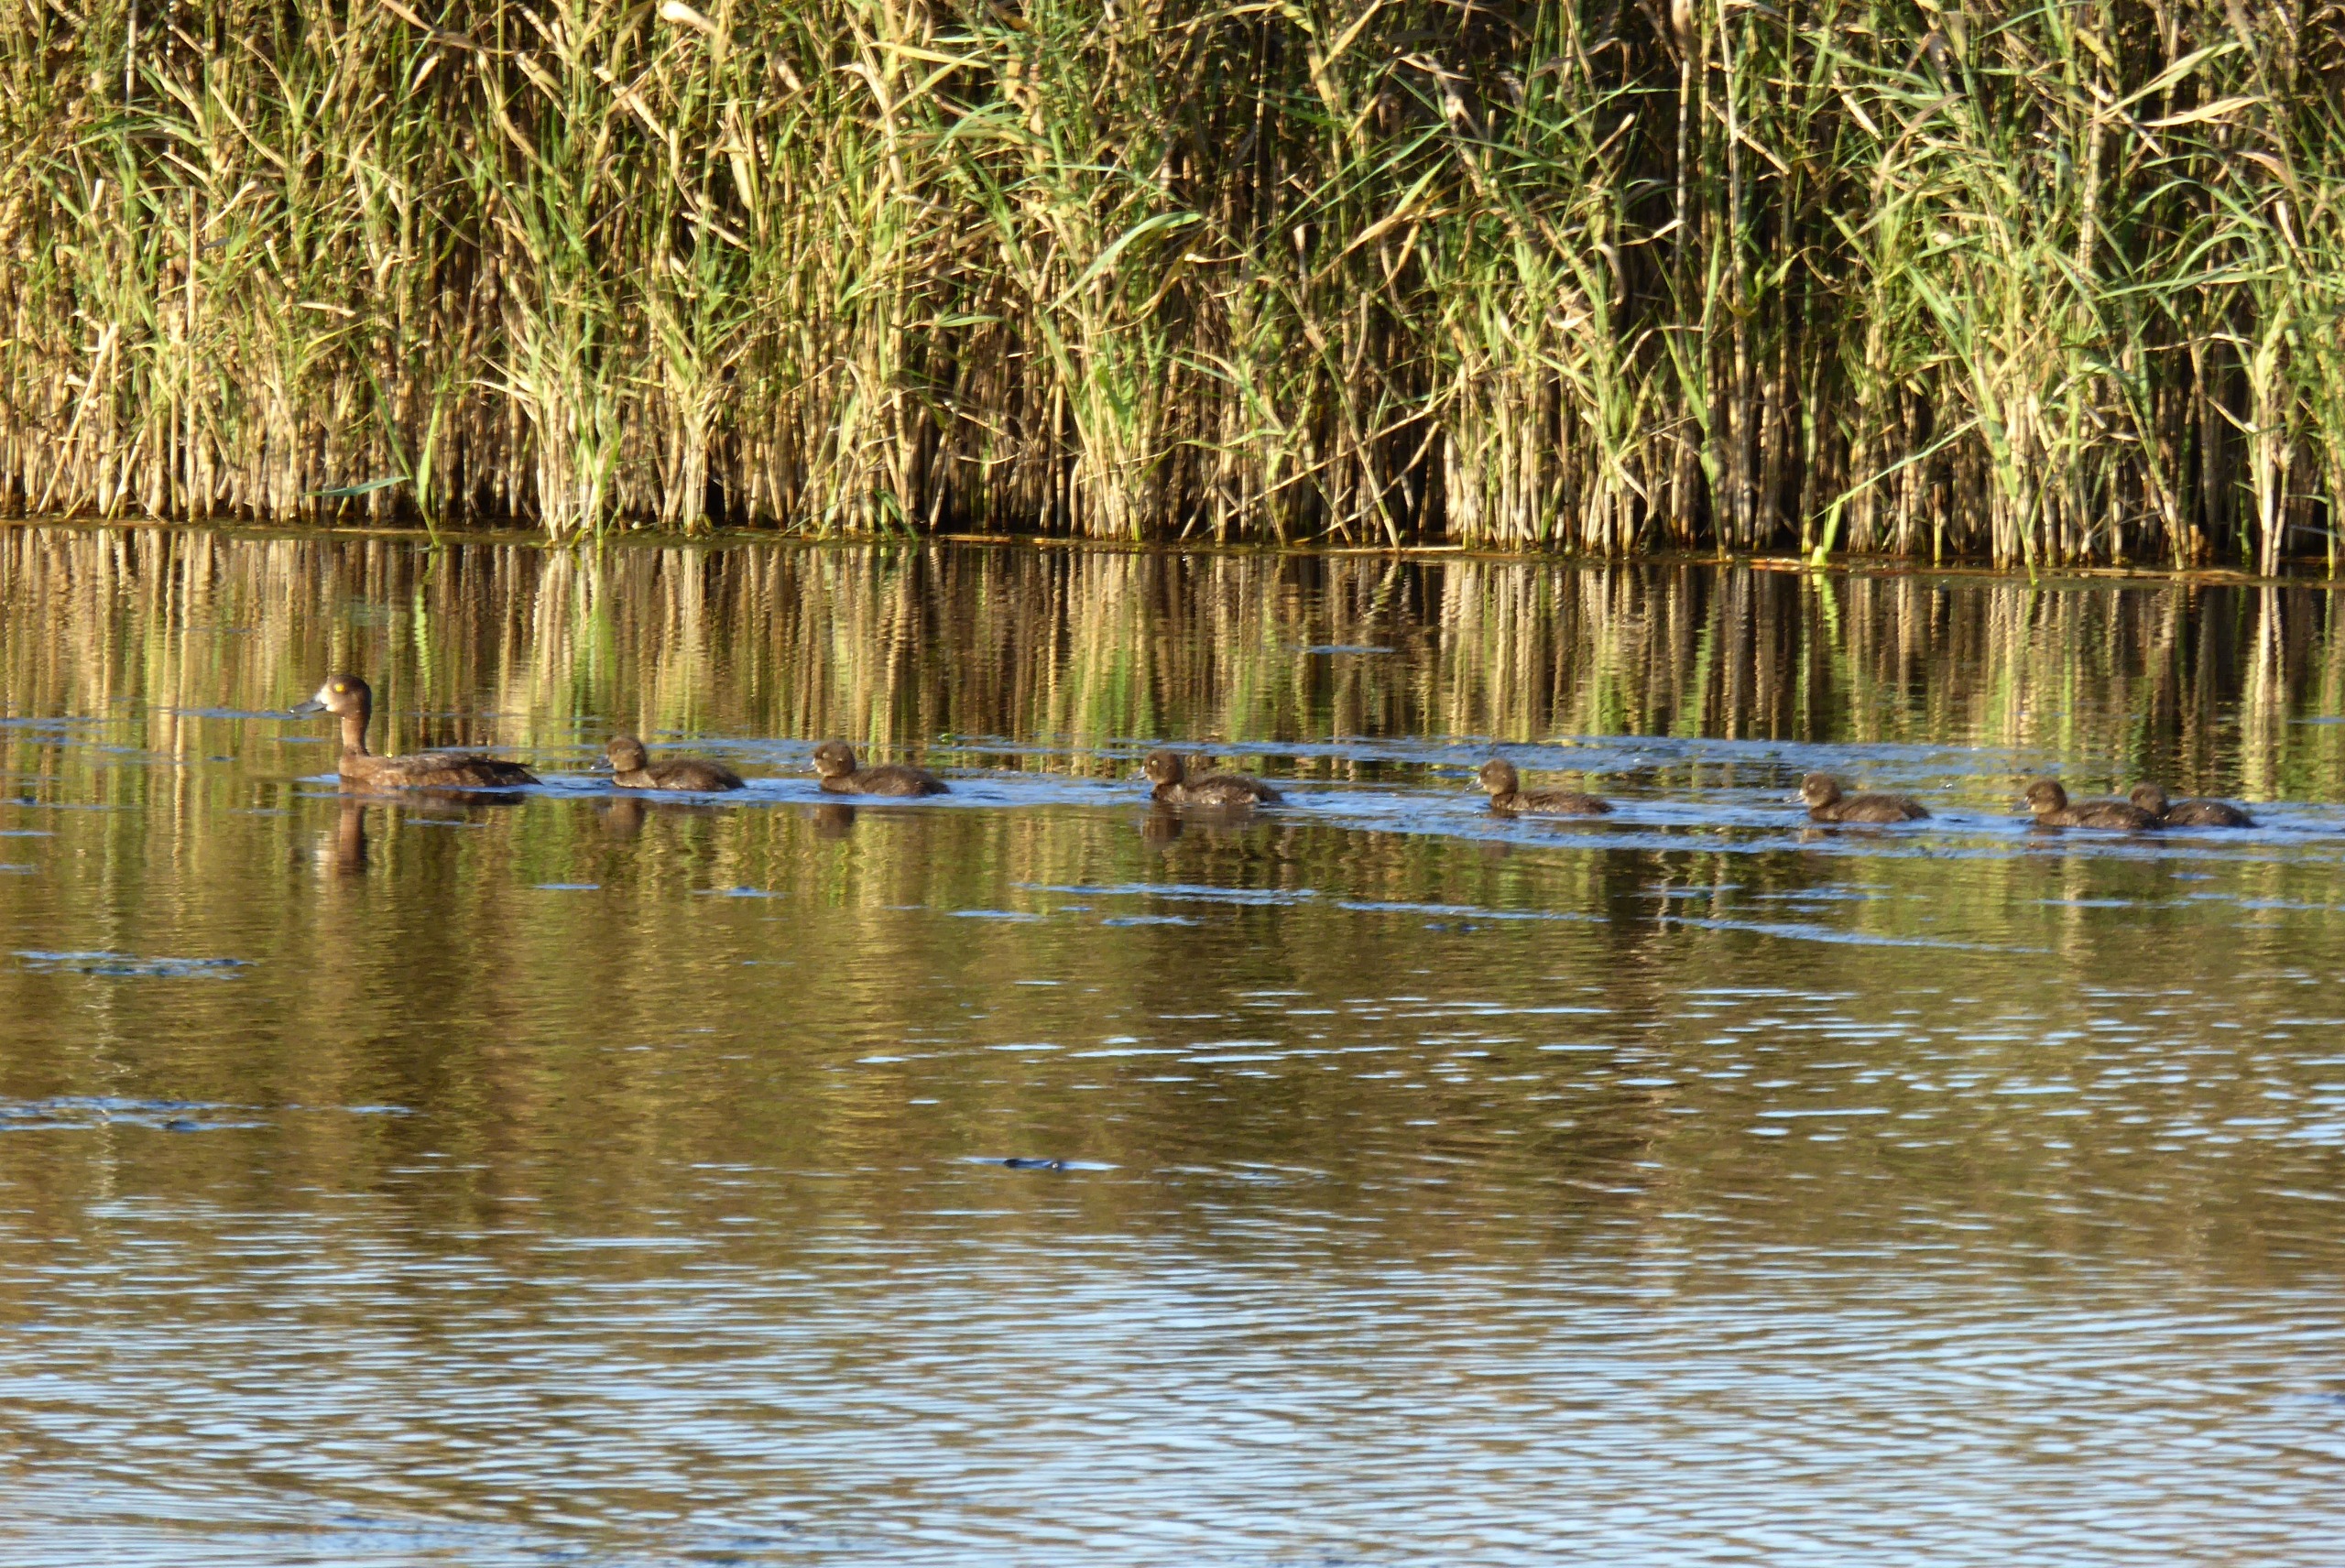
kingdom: Animalia
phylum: Chordata
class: Aves
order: Anseriformes
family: Anatidae
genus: Aythya
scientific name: Aythya fuligula
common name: Troldand
